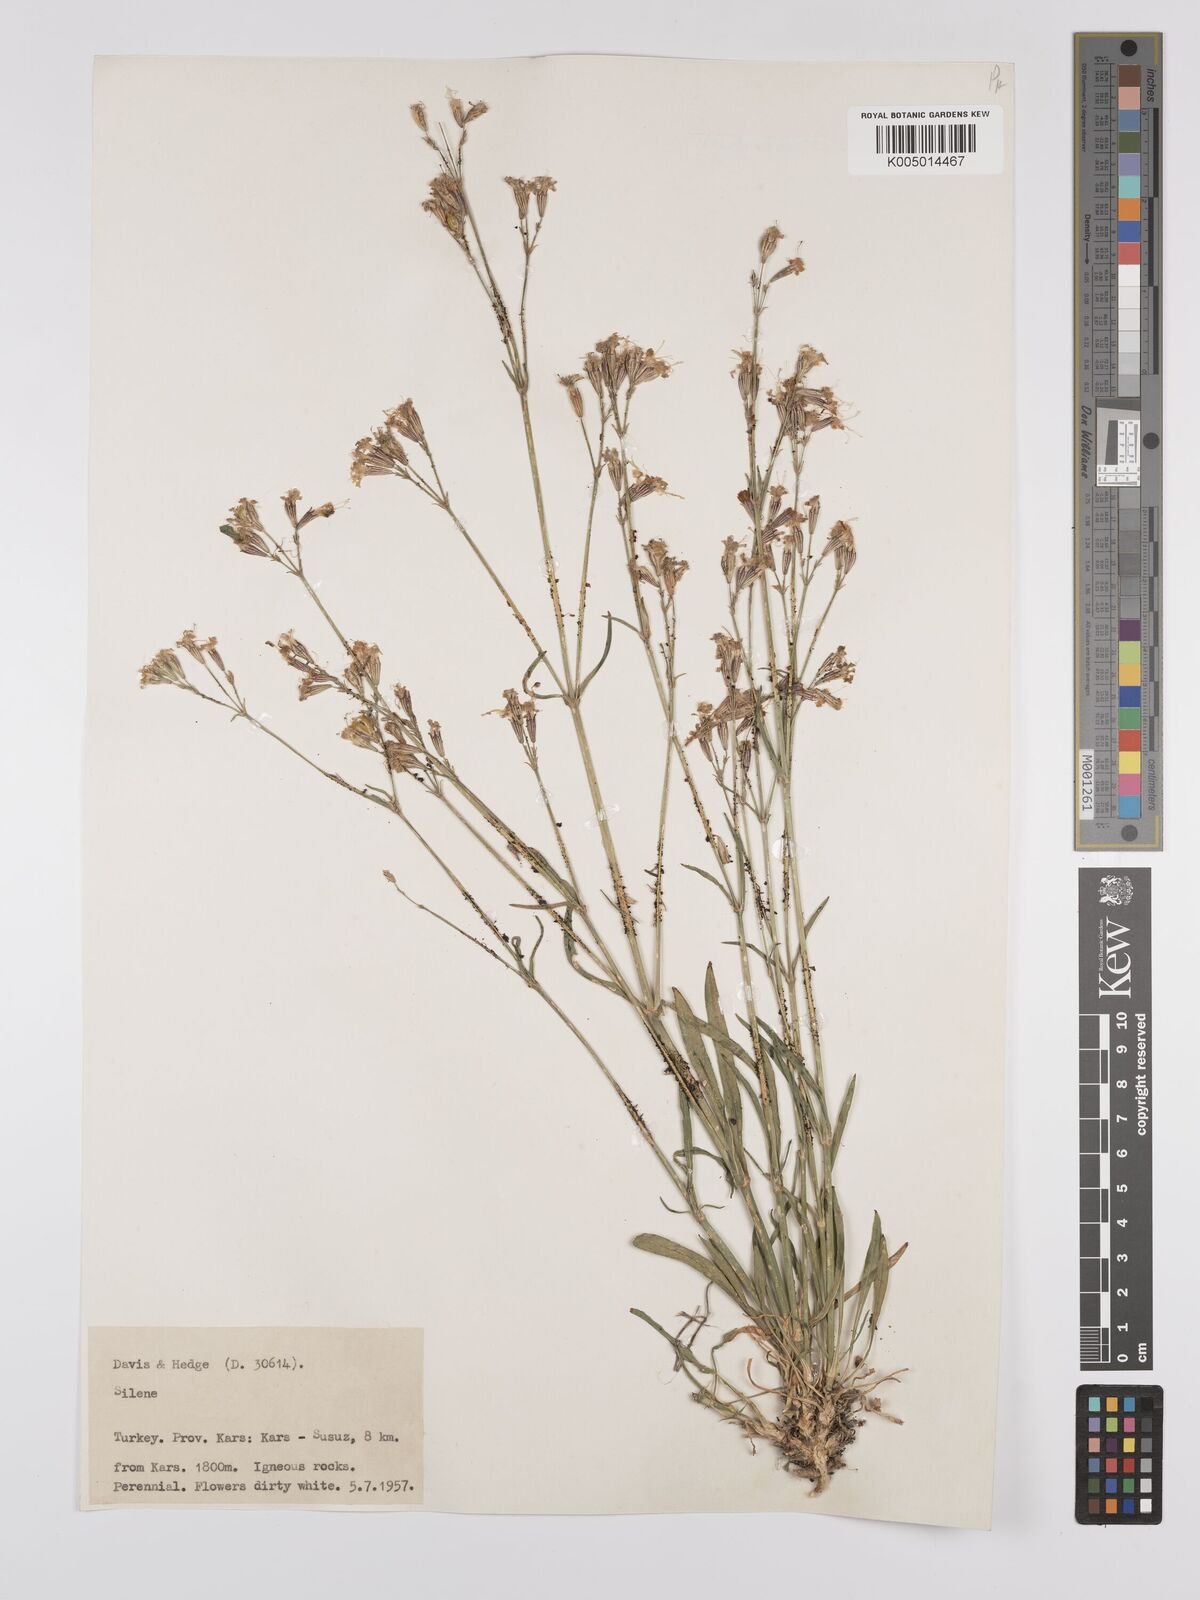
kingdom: Plantae
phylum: Tracheophyta
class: Magnoliopsida
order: Caryophyllales
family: Caryophyllaceae
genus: Silene
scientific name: Silene
